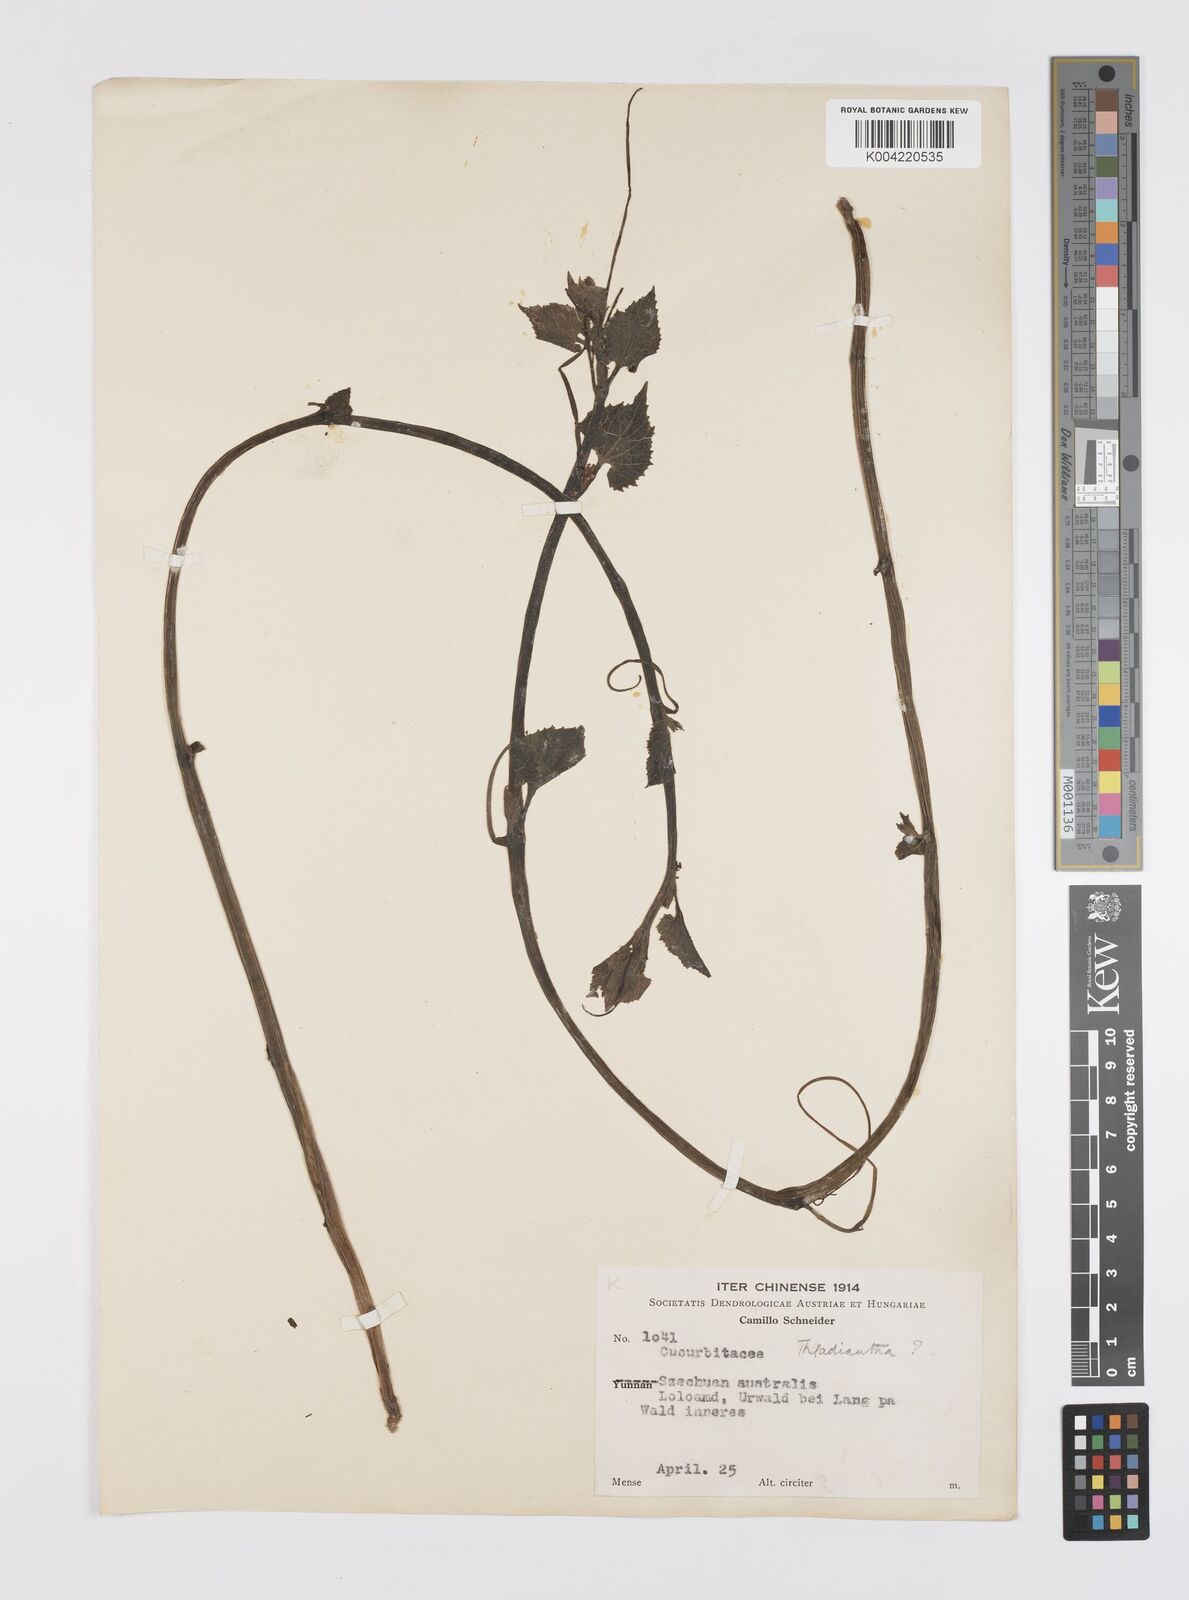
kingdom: Plantae
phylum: Tracheophyta
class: Magnoliopsida
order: Cucurbitales
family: Cucurbitaceae
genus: Thladiantha
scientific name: Thladiantha
